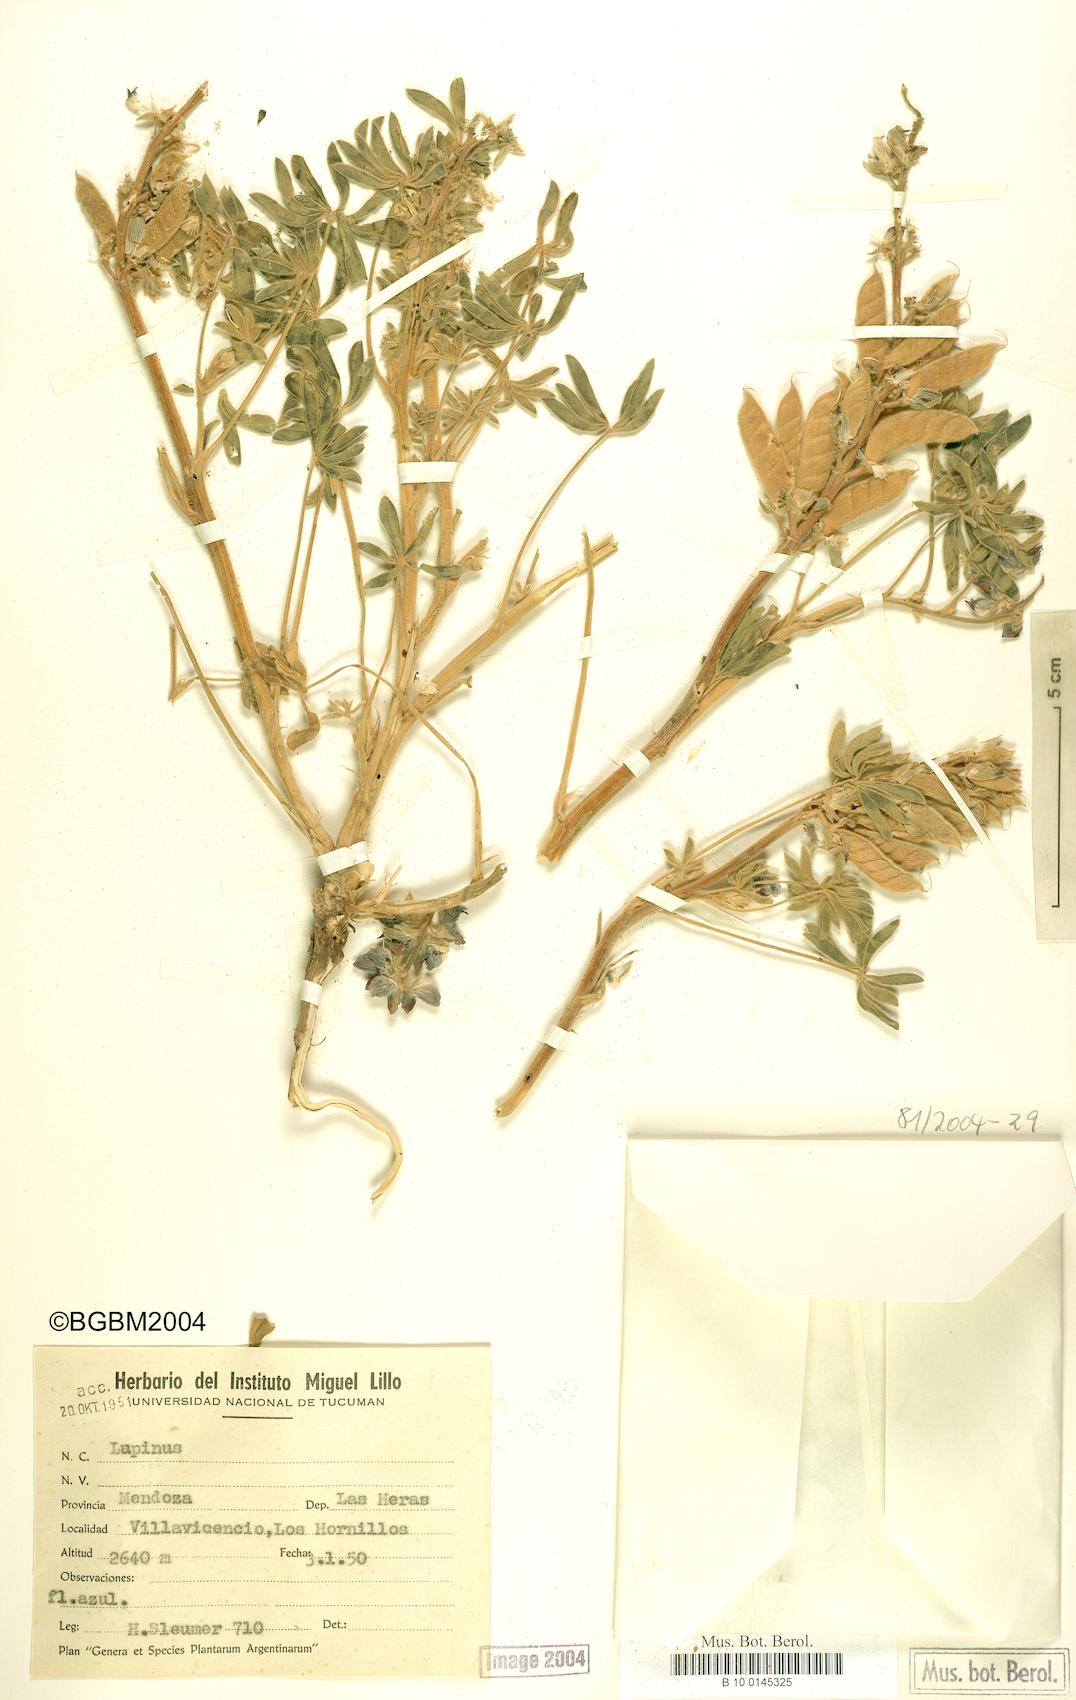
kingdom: Plantae
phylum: Tracheophyta
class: Magnoliopsida
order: Fabales
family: Fabaceae
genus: Lupinus
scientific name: Lupinus
